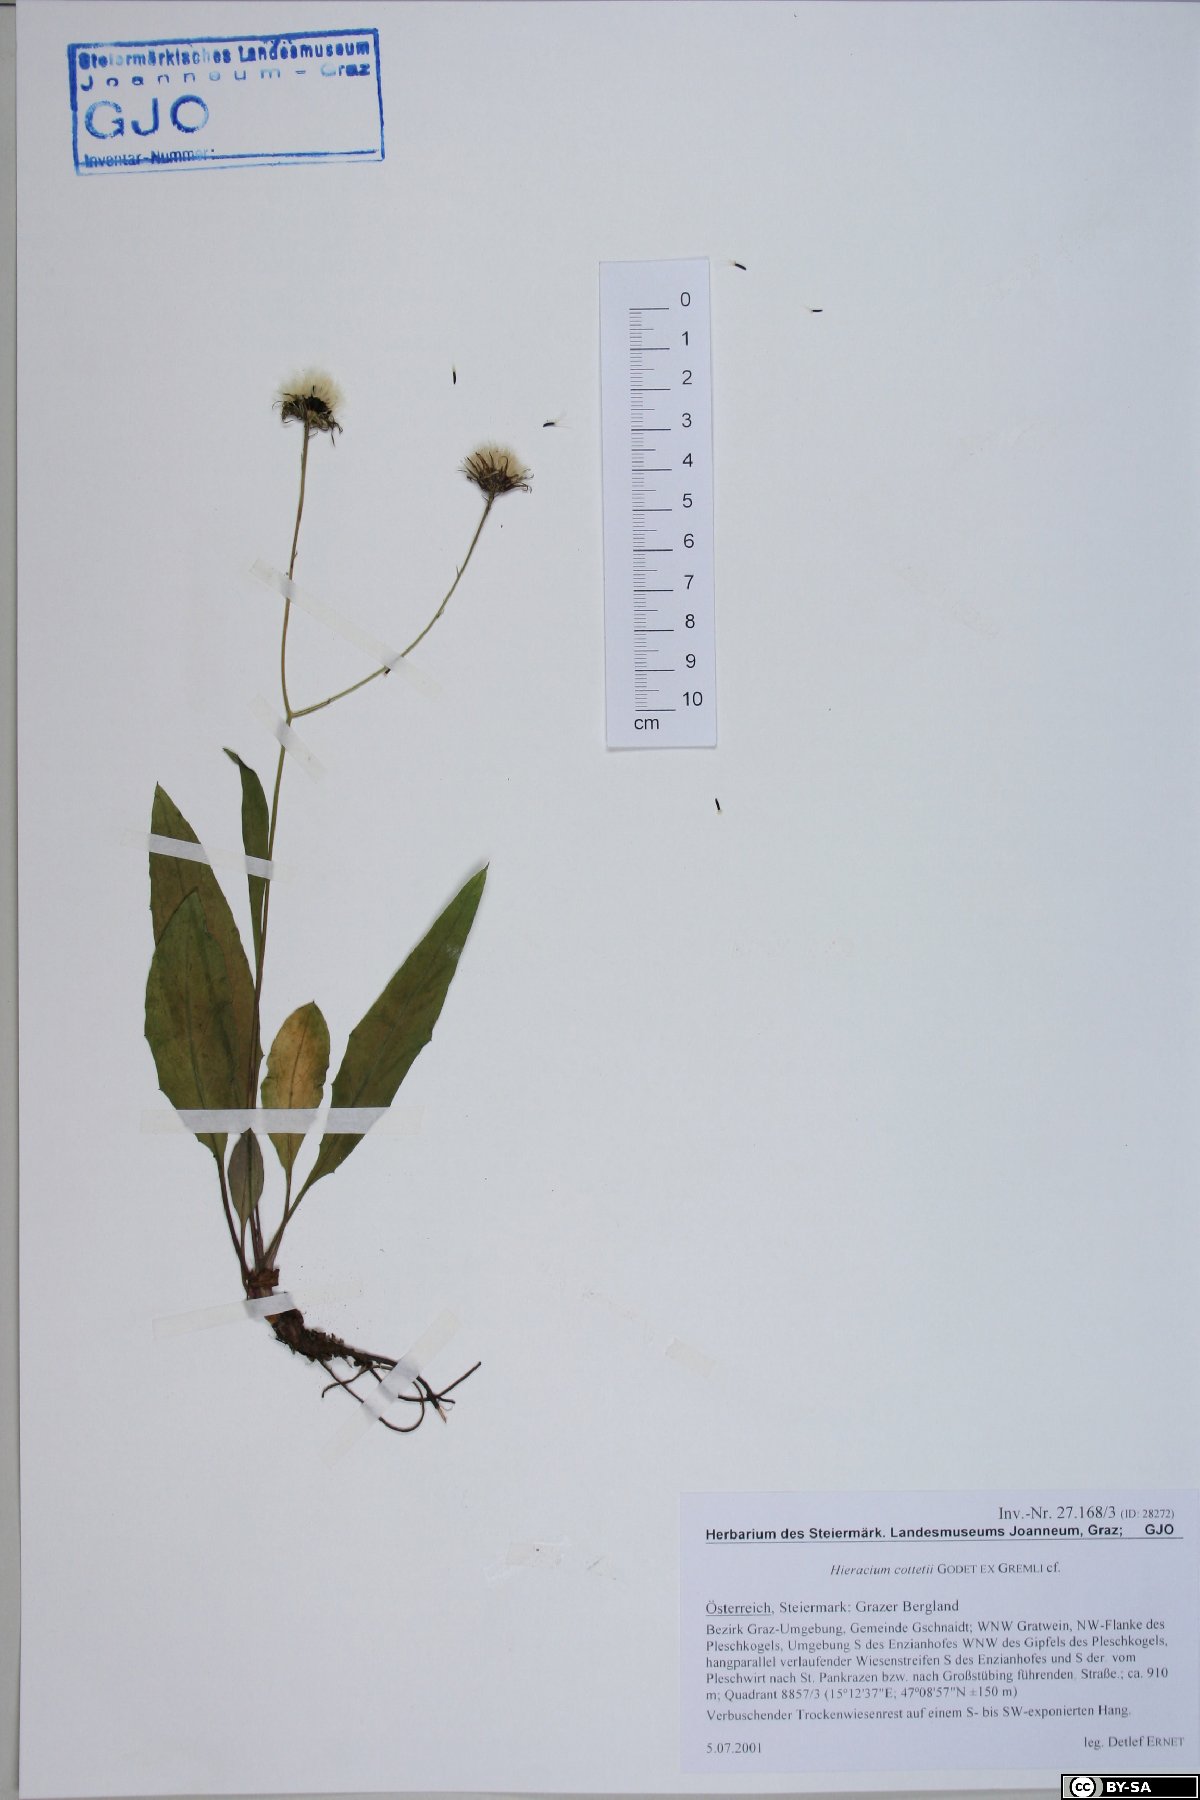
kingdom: Plantae
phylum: Tracheophyta
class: Magnoliopsida
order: Asterales
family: Asteraceae
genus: Hieracium
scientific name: Hieracium cottetii
